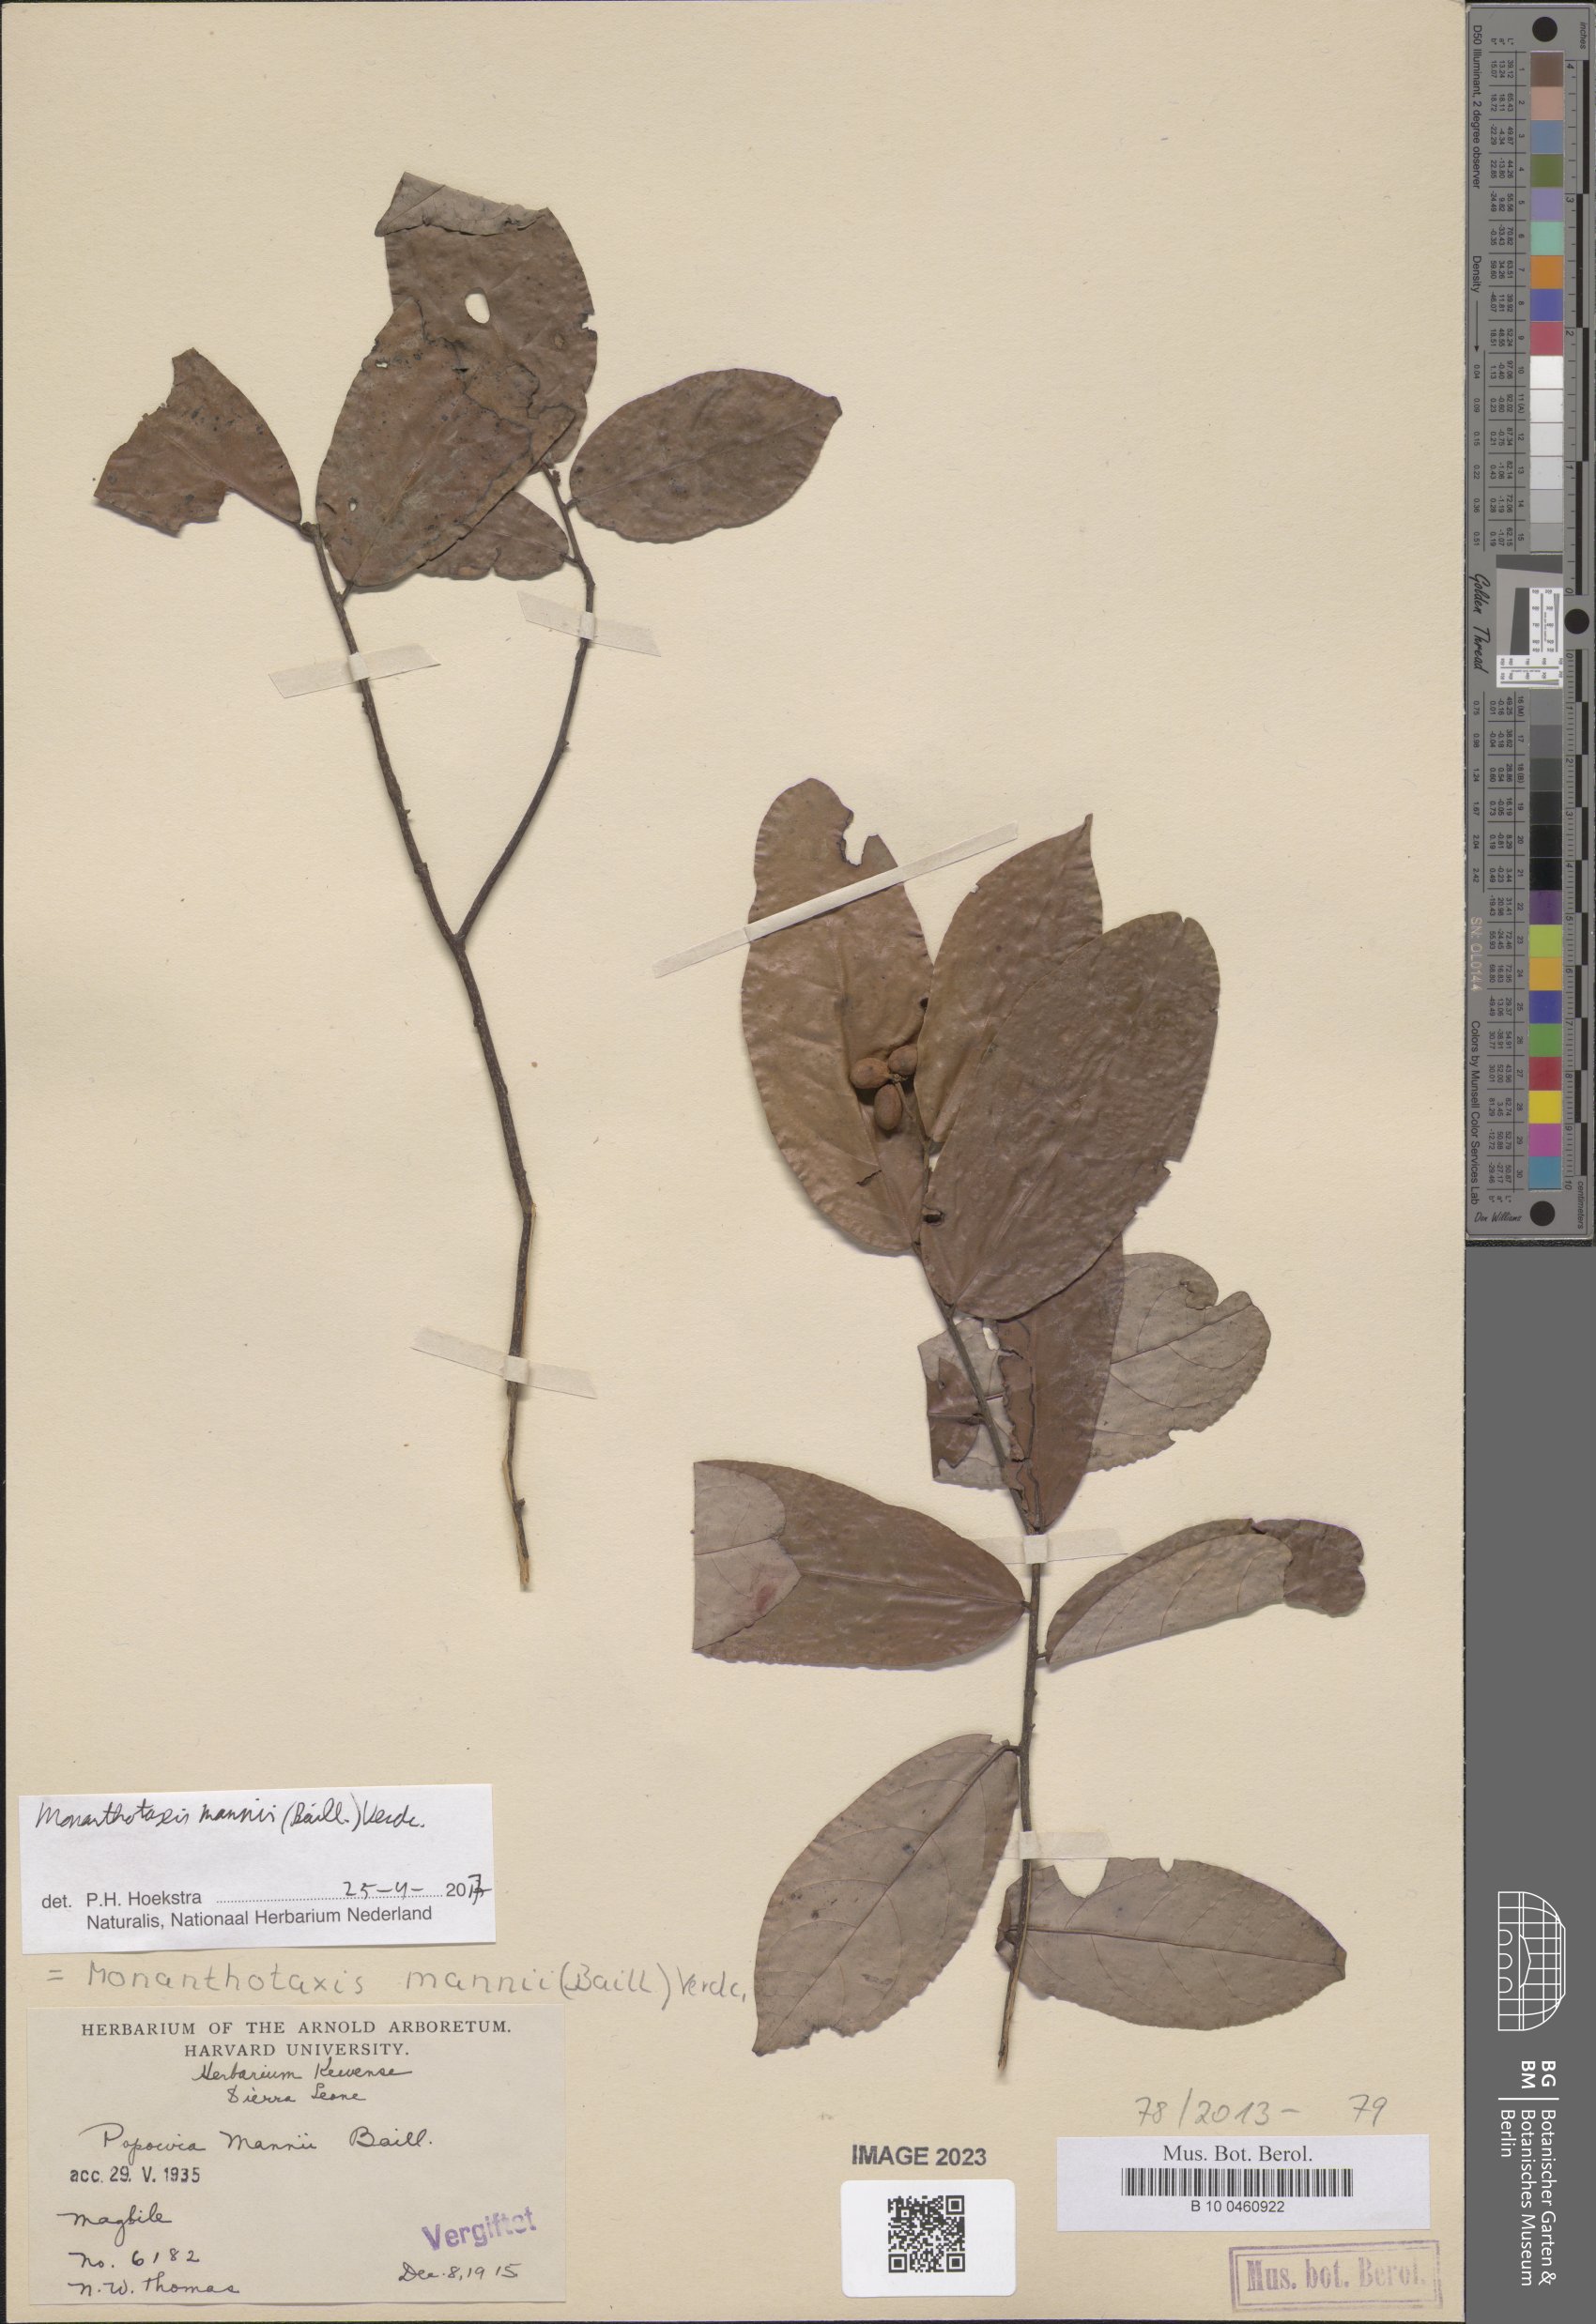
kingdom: Plantae
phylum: Tracheophyta
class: Magnoliopsida
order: Magnoliales
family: Annonaceae
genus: Monanthotaxis
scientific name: Monanthotaxis mannii
